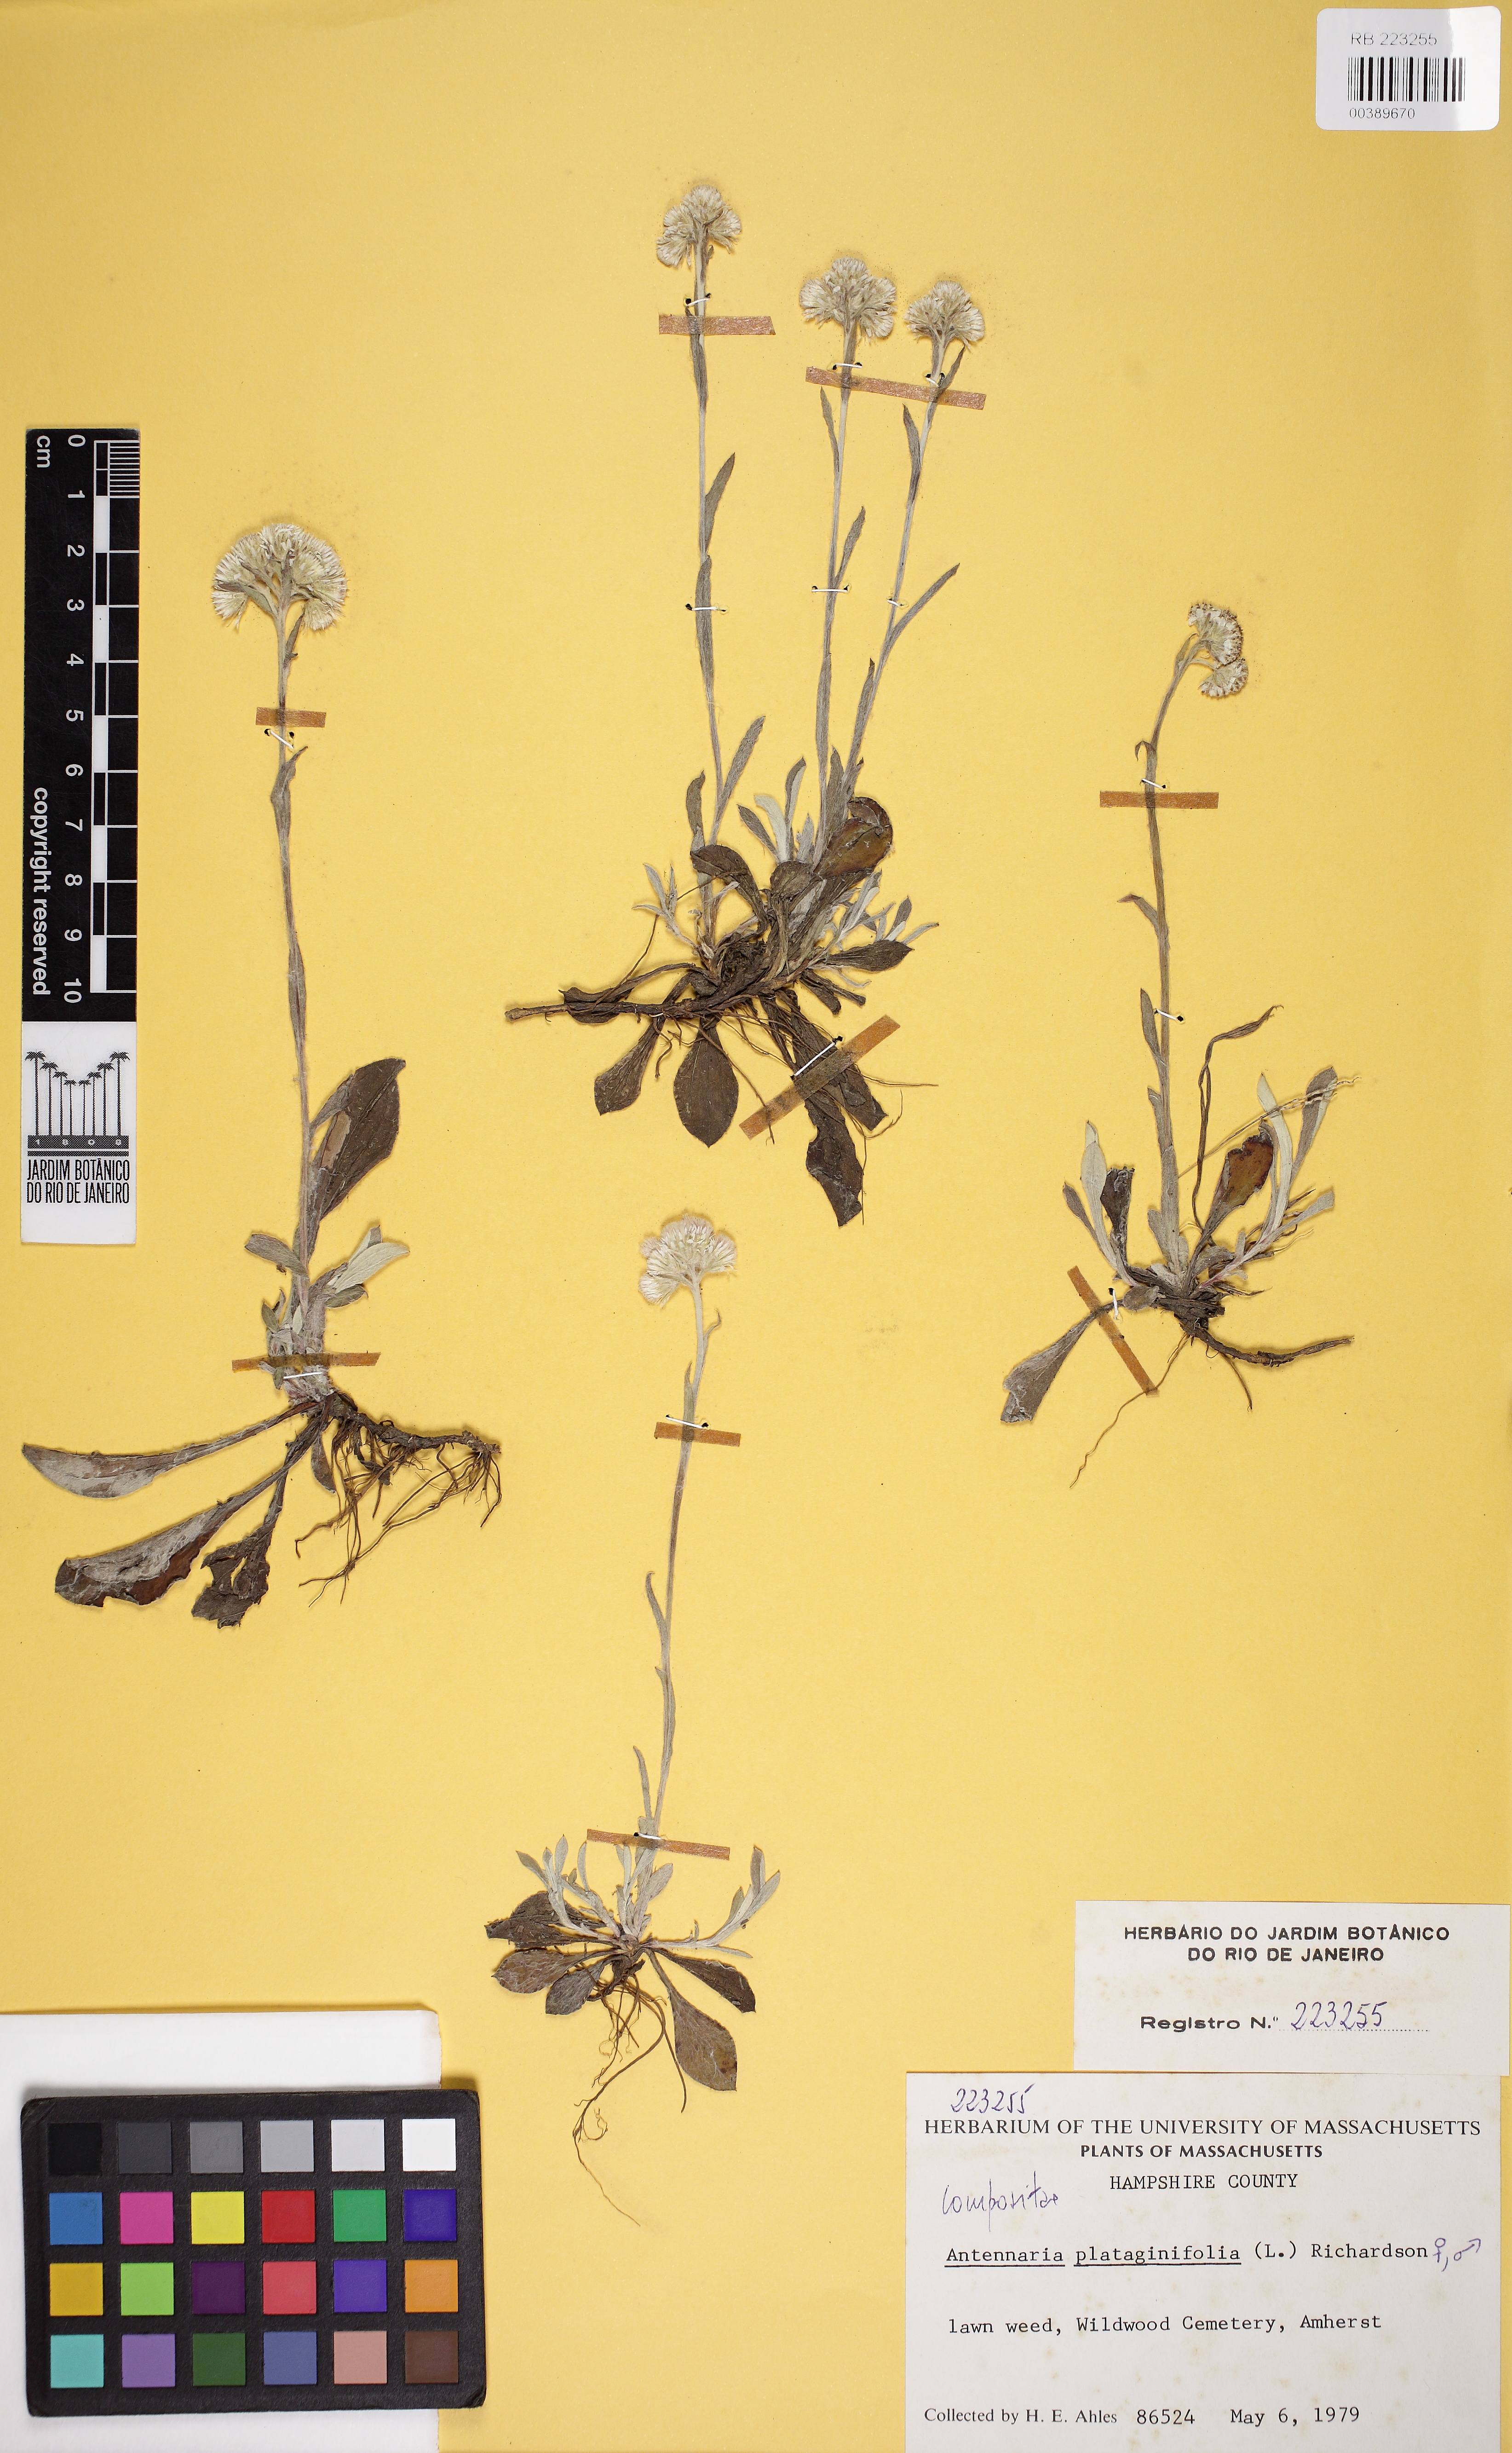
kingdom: Plantae
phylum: Tracheophyta
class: Magnoliopsida
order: Asterales
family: Asteraceae
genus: Antennaria
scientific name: Antennaria plantaginifolia
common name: Plantain-leaved pussytoes
